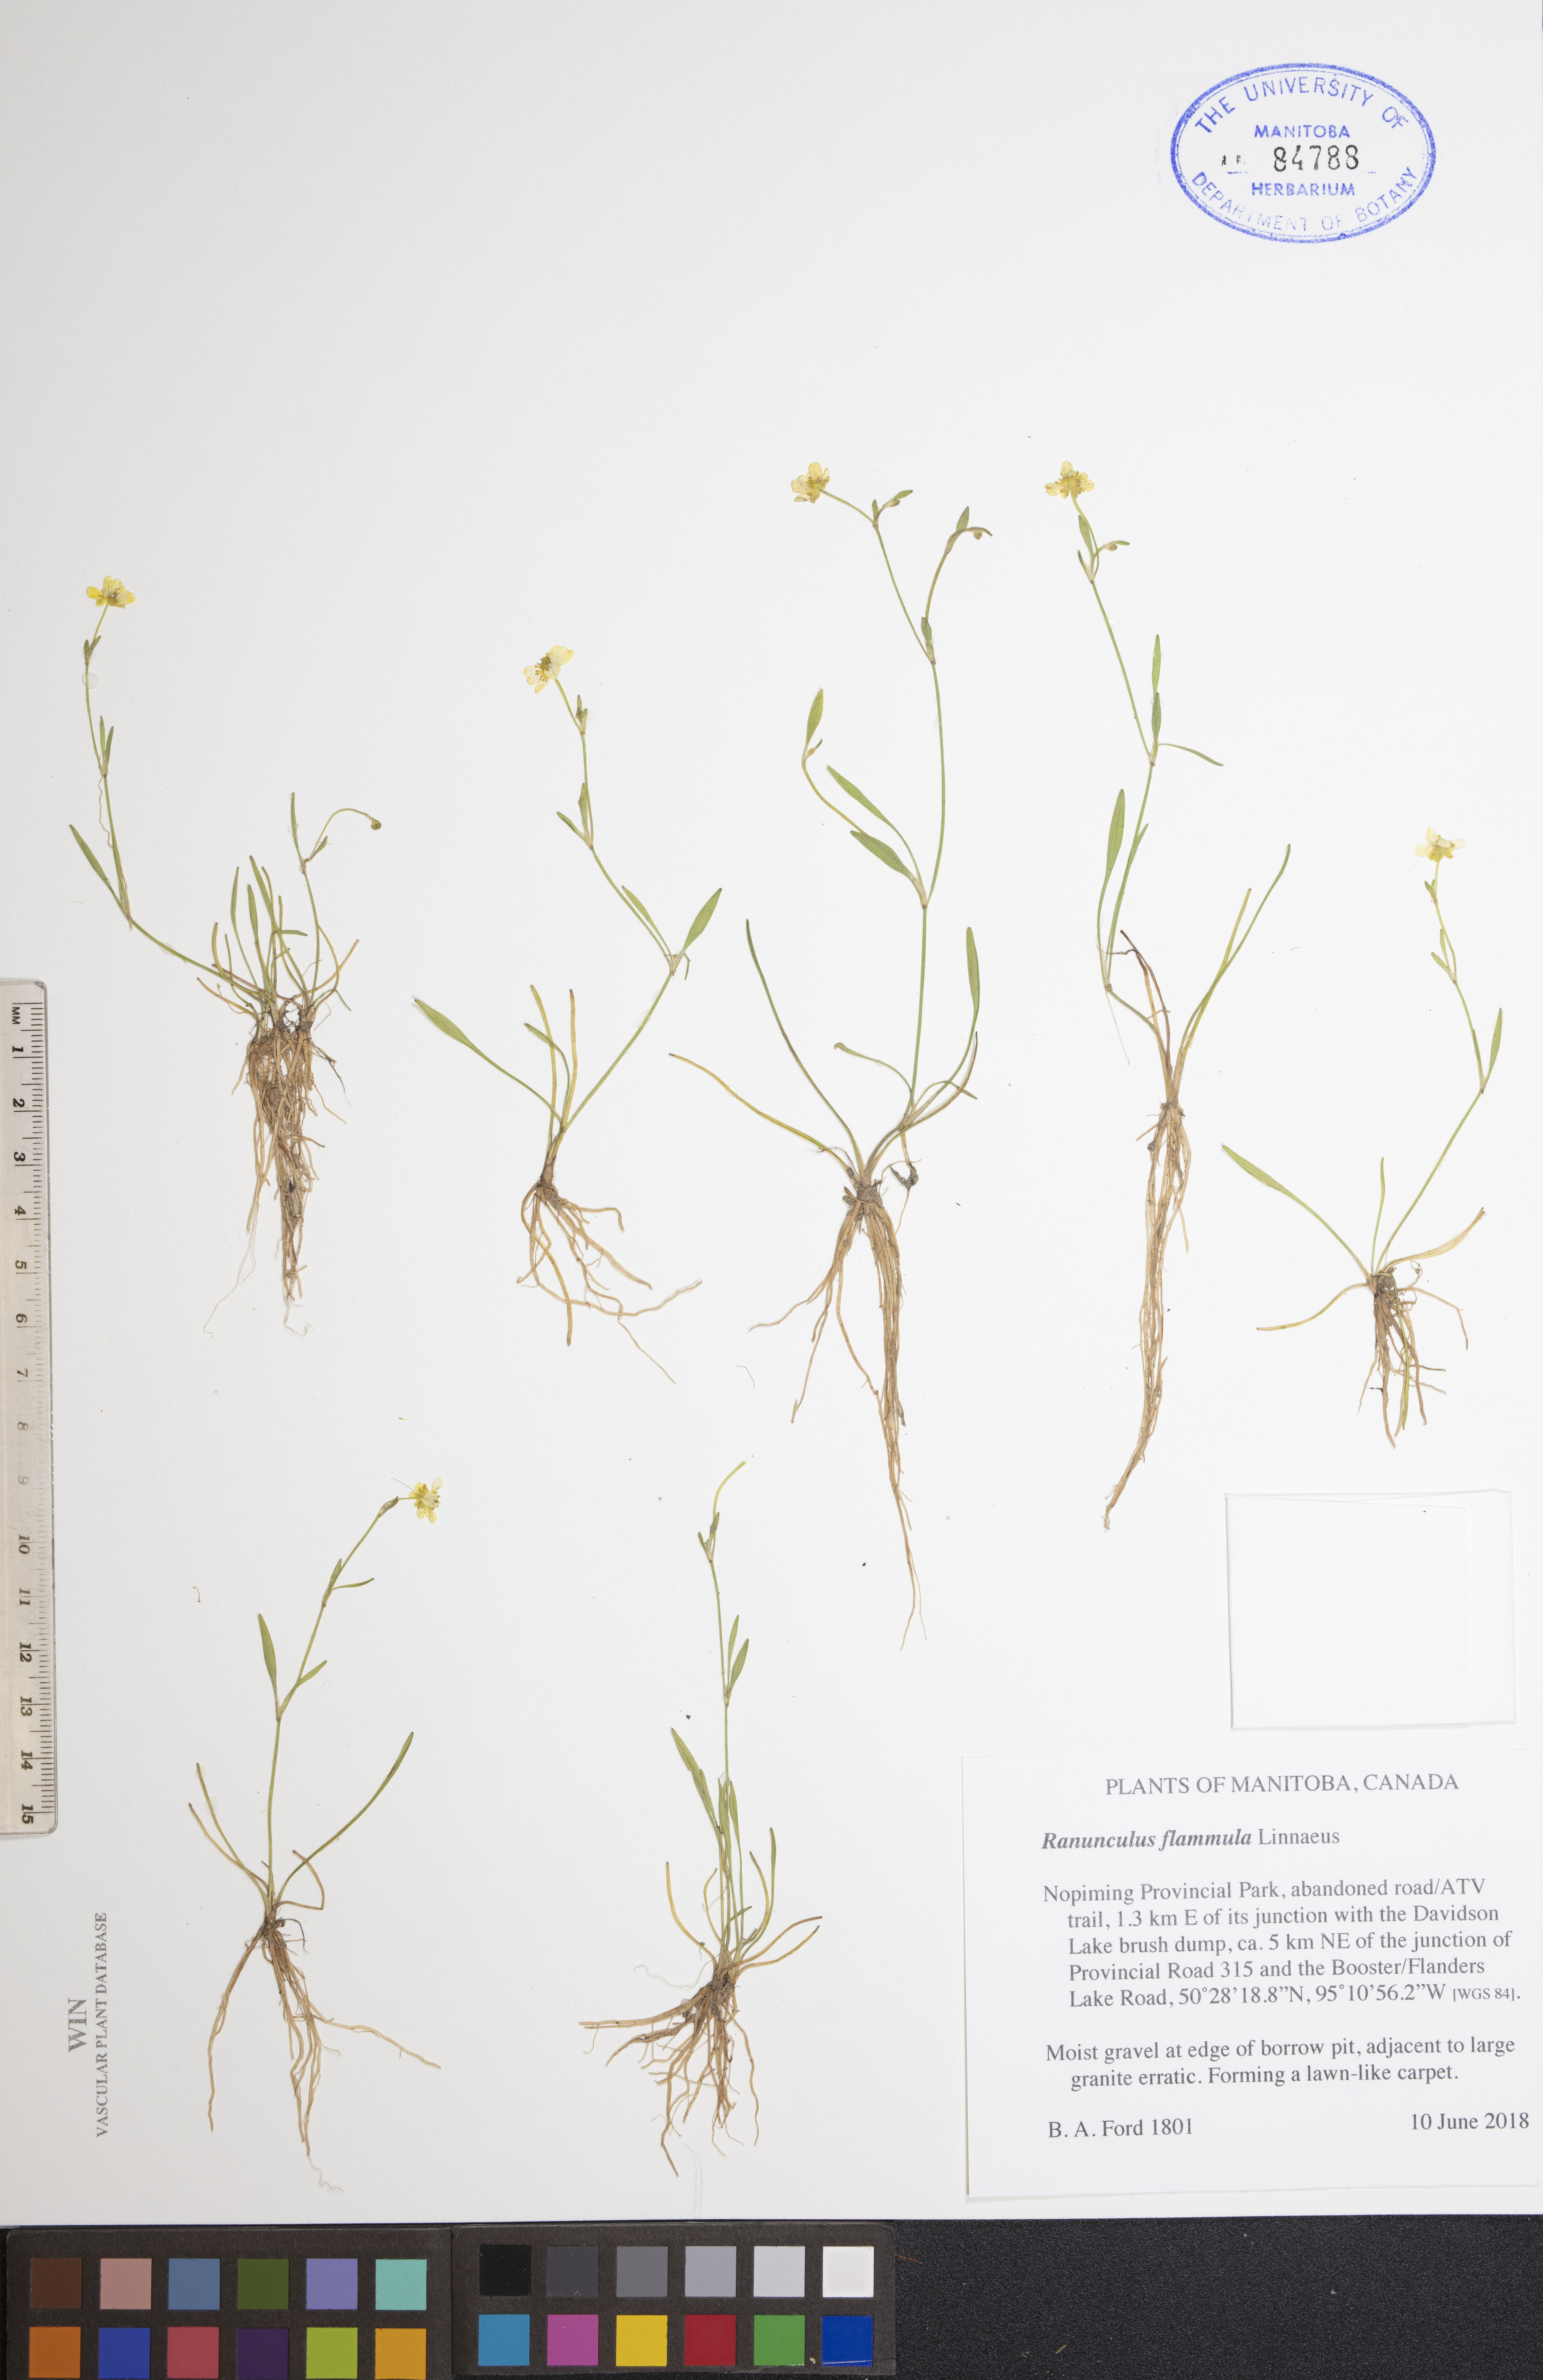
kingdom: Plantae
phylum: Tracheophyta
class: Magnoliopsida
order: Ranunculales
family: Ranunculaceae
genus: Ranunculus
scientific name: Ranunculus flammula
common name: Lesser spearwort
